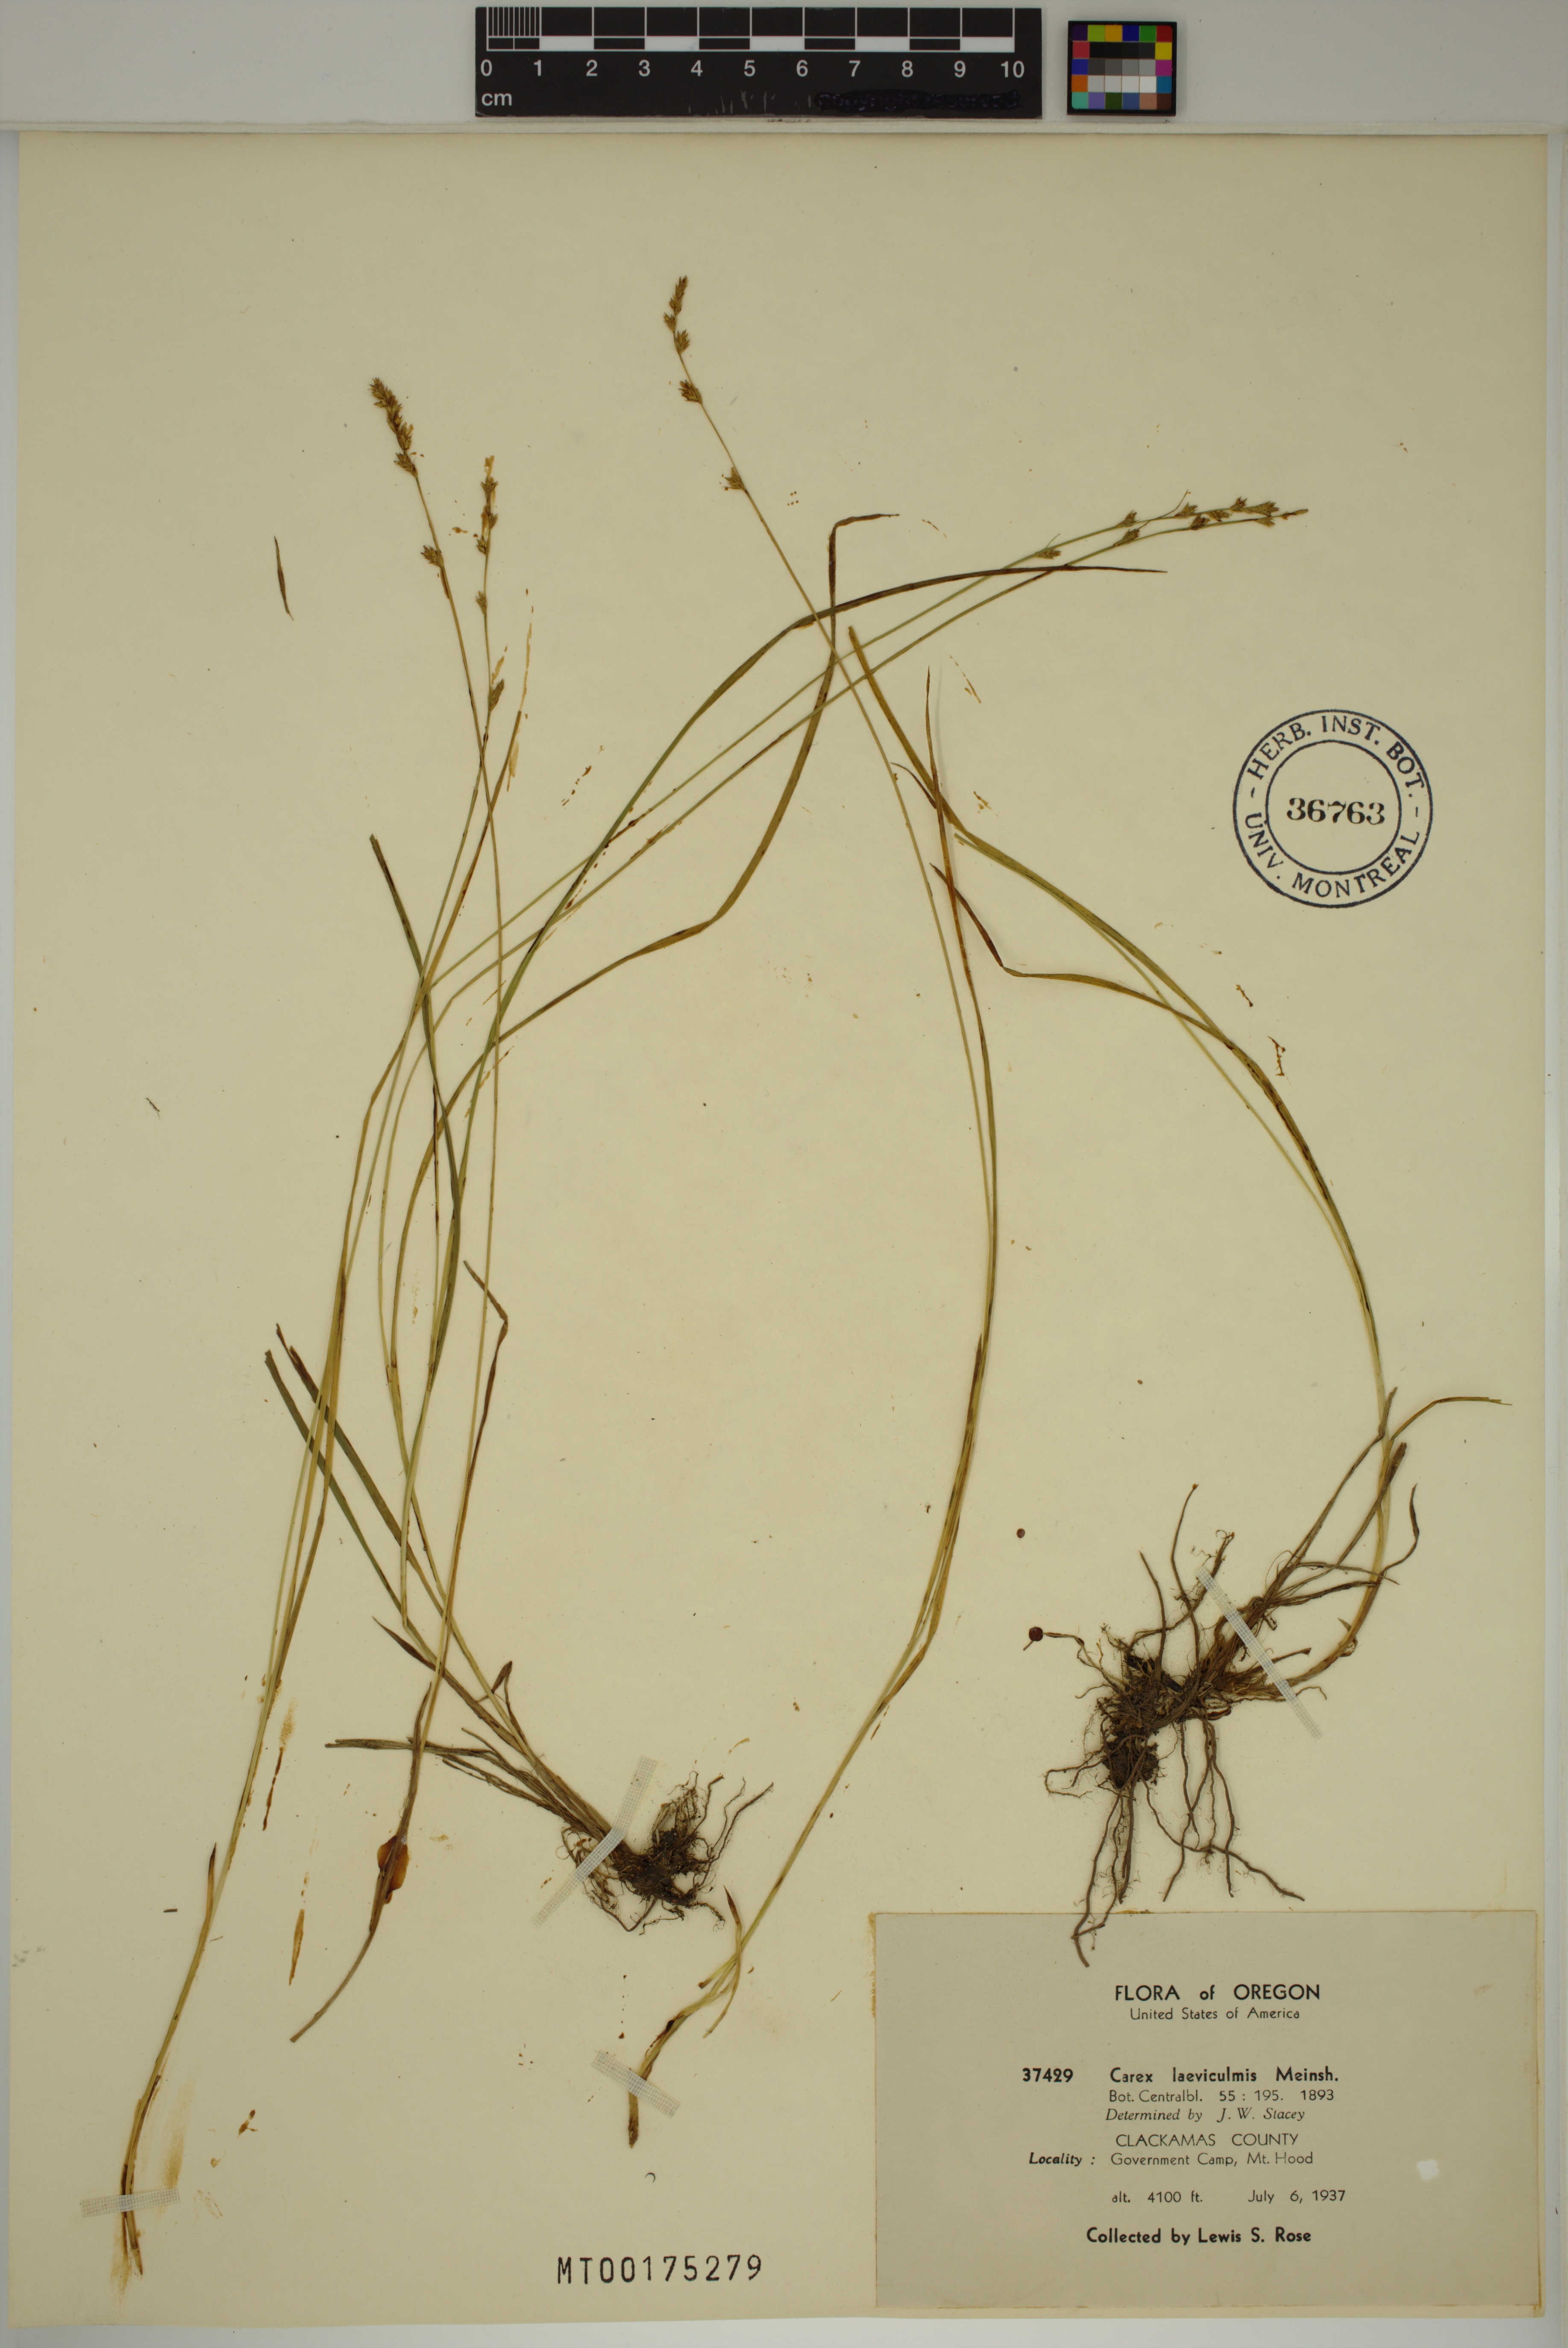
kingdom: Plantae
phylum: Tracheophyta
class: Liliopsida
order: Poales
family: Cyperaceae
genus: Carex
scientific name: Carex laeviculmis
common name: Smooth sedge
